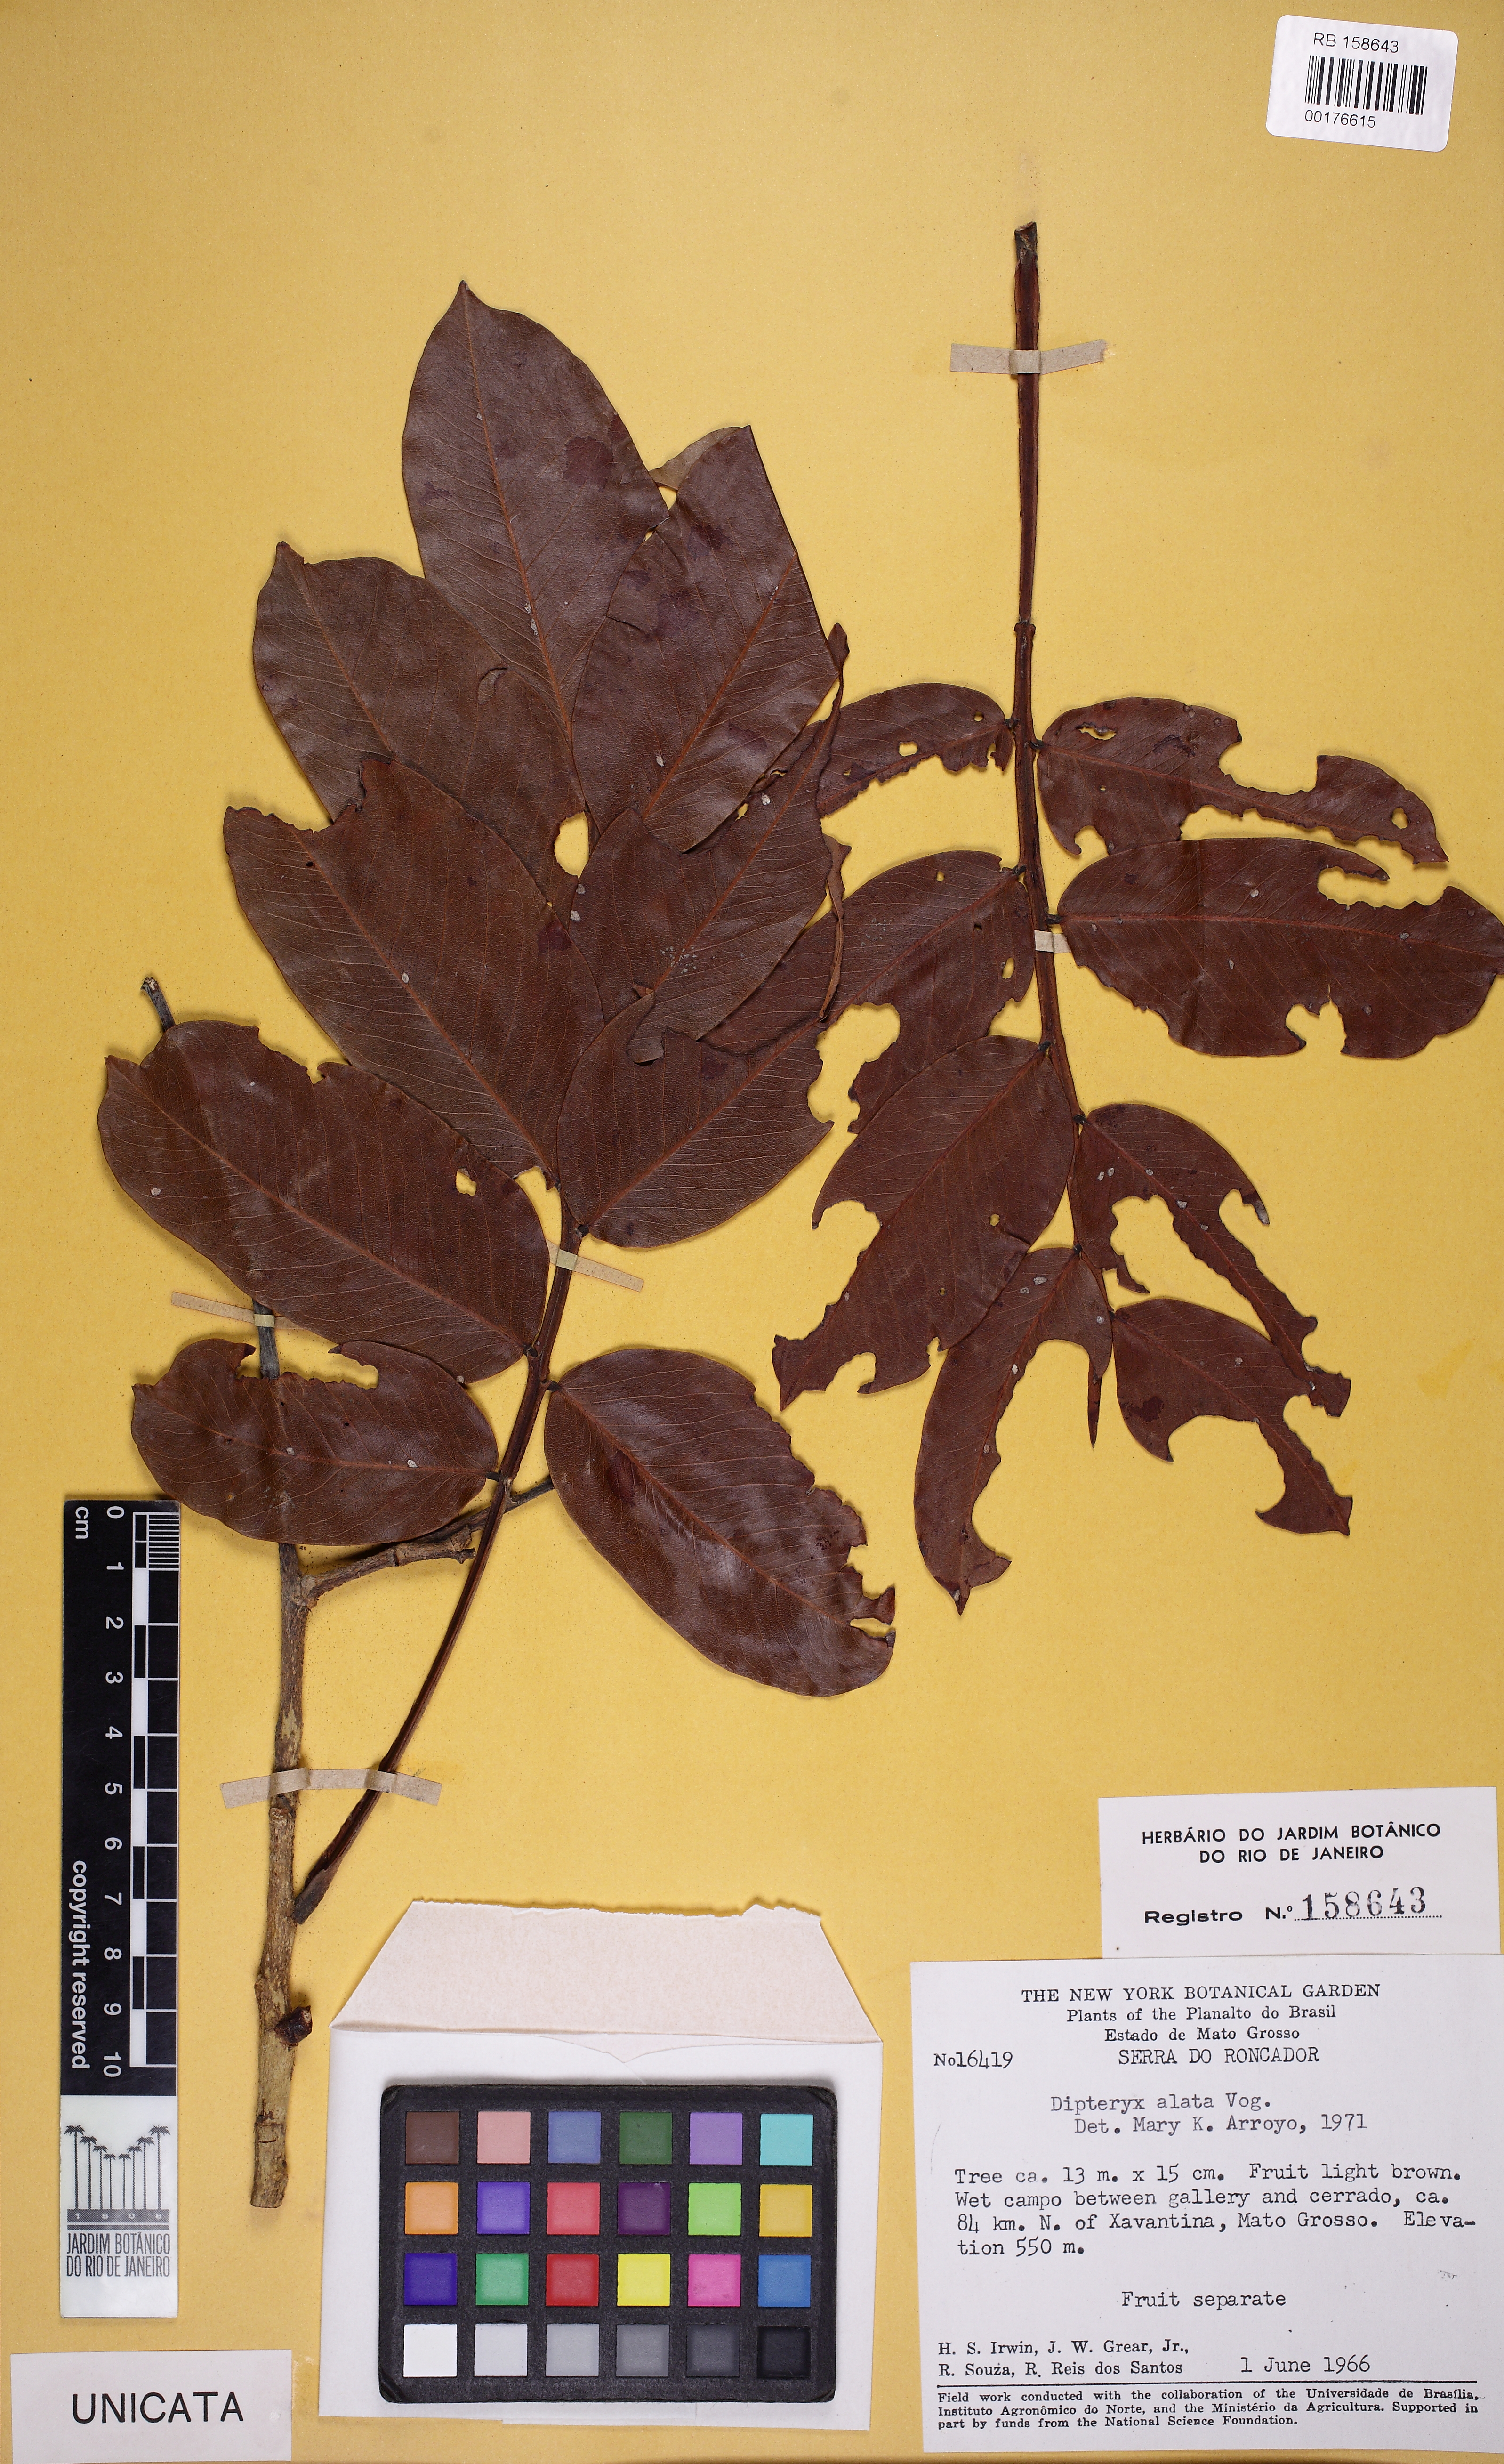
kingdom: Plantae
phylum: Tracheophyta
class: Magnoliopsida
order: Fabales
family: Fabaceae
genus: Dipteryx
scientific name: Dipteryx alata
